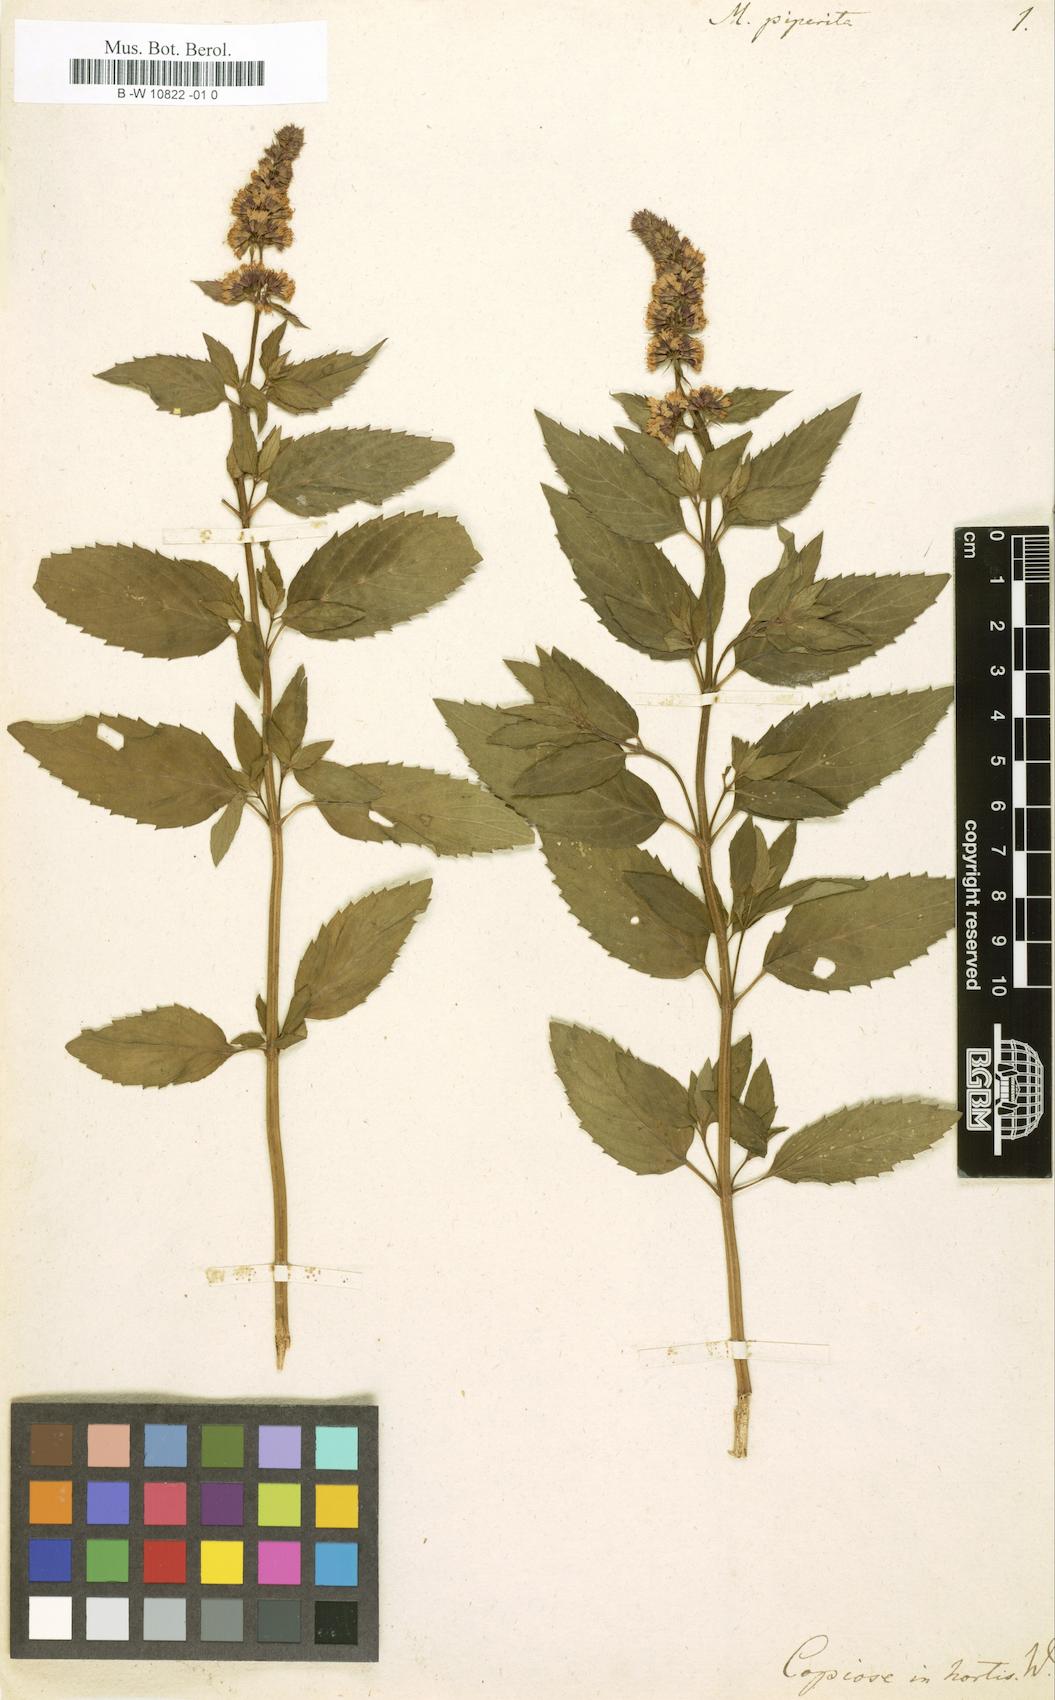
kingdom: Plantae
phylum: Tracheophyta
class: Magnoliopsida
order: Lamiales
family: Lamiaceae
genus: Mentha
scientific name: Mentha piperita
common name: Peppermint
